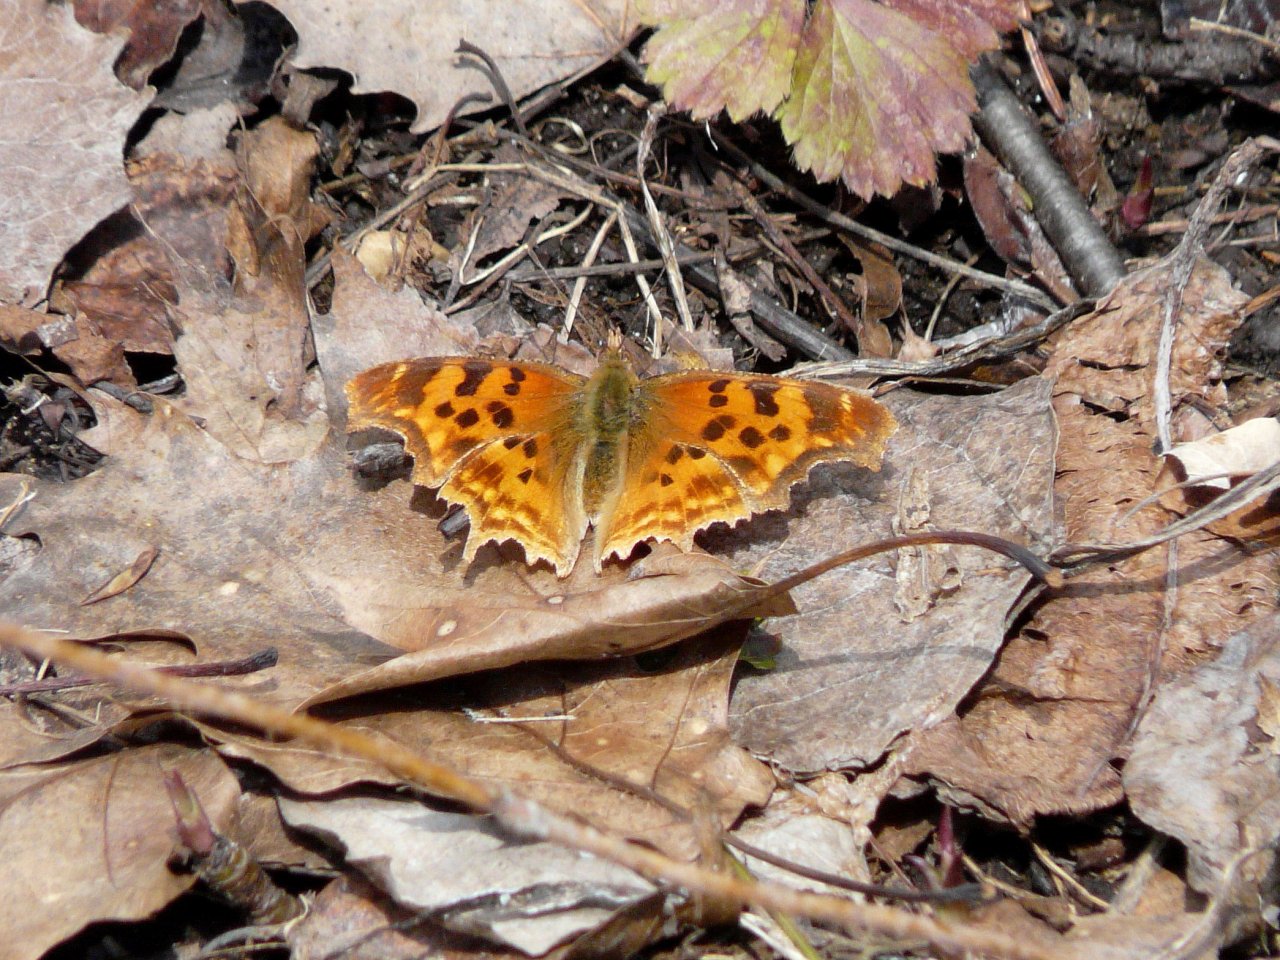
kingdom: Animalia
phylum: Arthropoda
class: Insecta
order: Lepidoptera
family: Nymphalidae
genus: Polygonia
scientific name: Polygonia satyrus
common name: Satyr Comma
